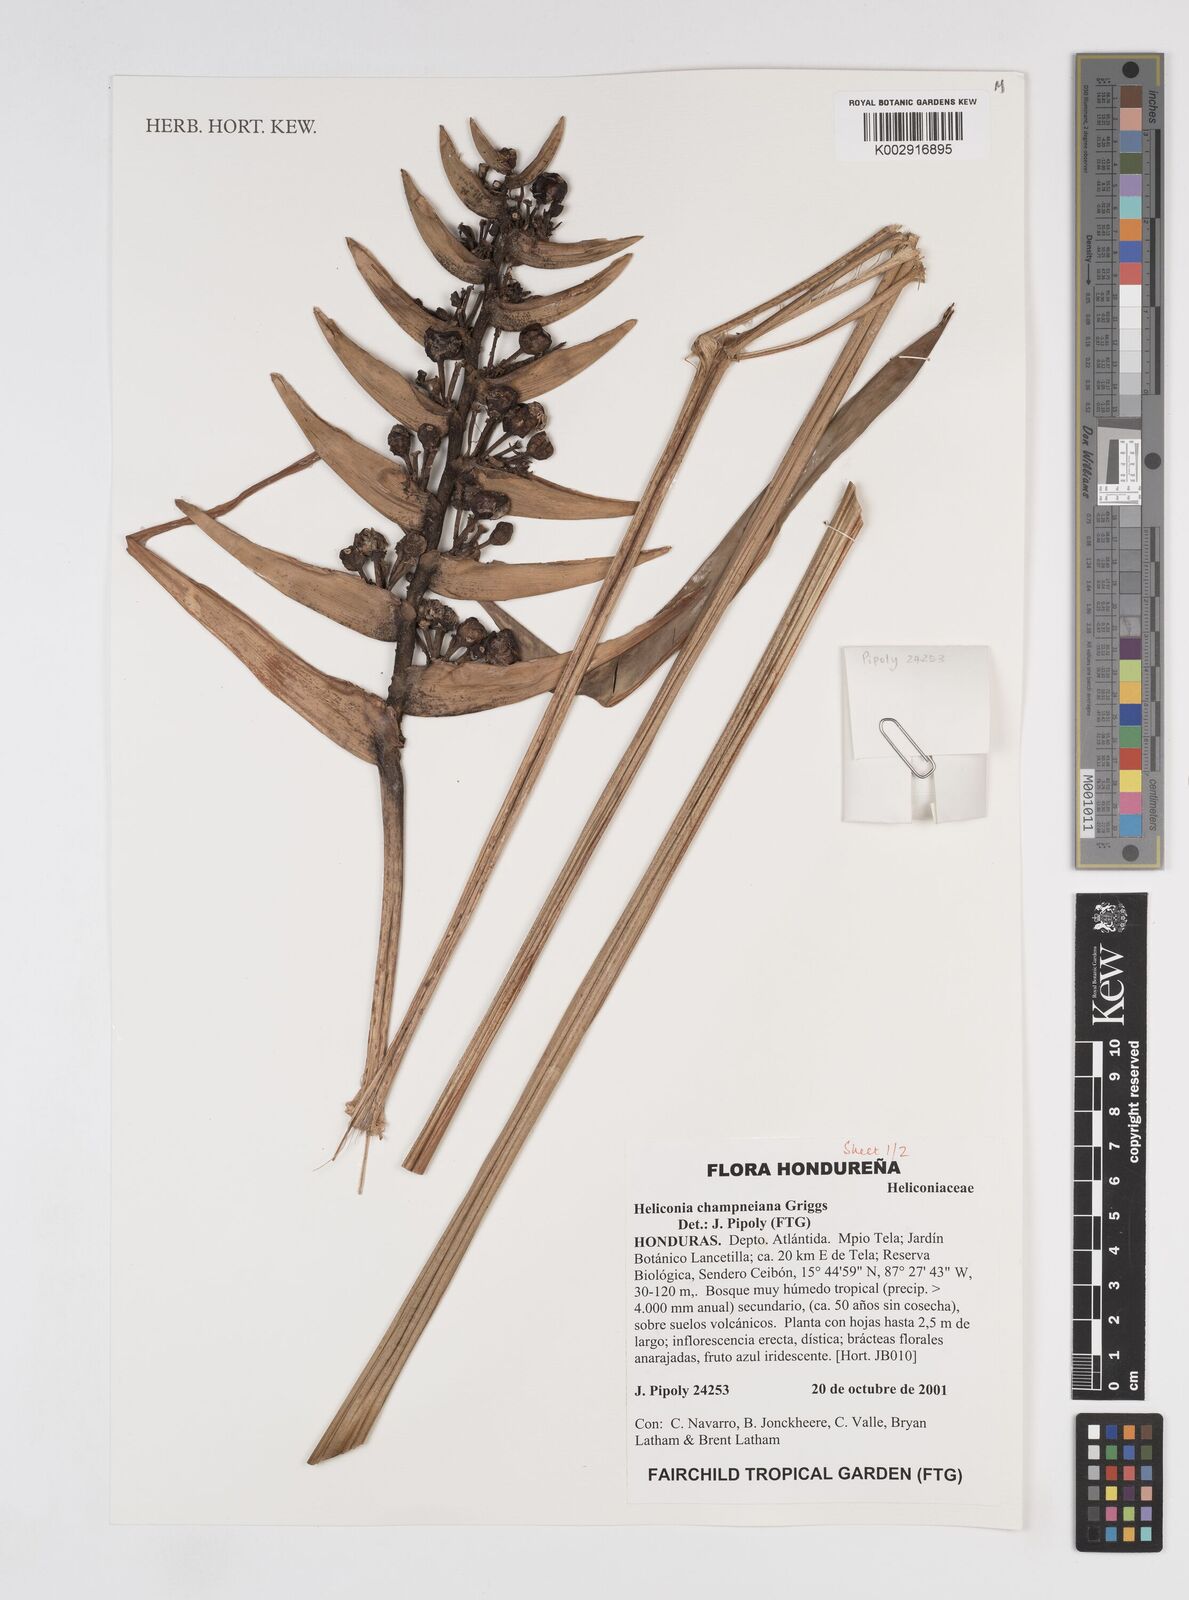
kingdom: Plantae
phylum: Tracheophyta
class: Liliopsida
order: Zingiberales
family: Heliconiaceae
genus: Heliconia
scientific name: Heliconia bourgaeana
